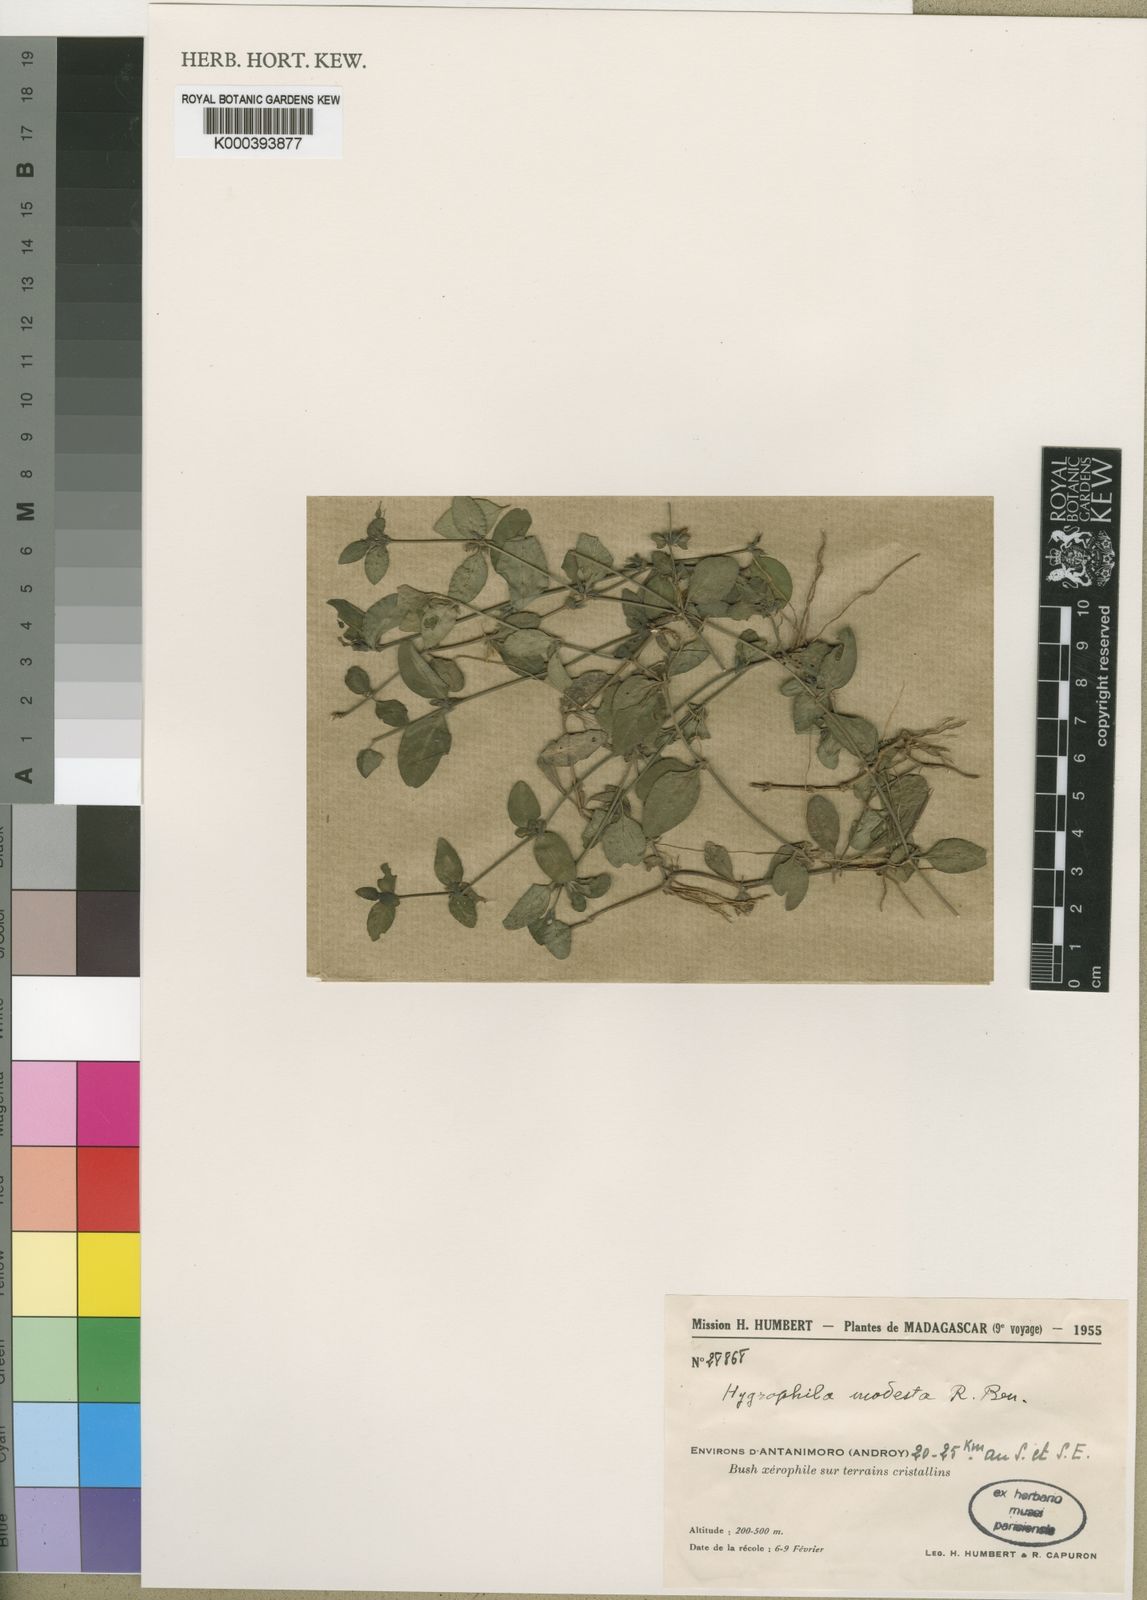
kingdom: Plantae
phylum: Tracheophyta
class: Magnoliopsida
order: Lamiales
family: Acanthaceae
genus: Hygrophila
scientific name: Hygrophila modesta
